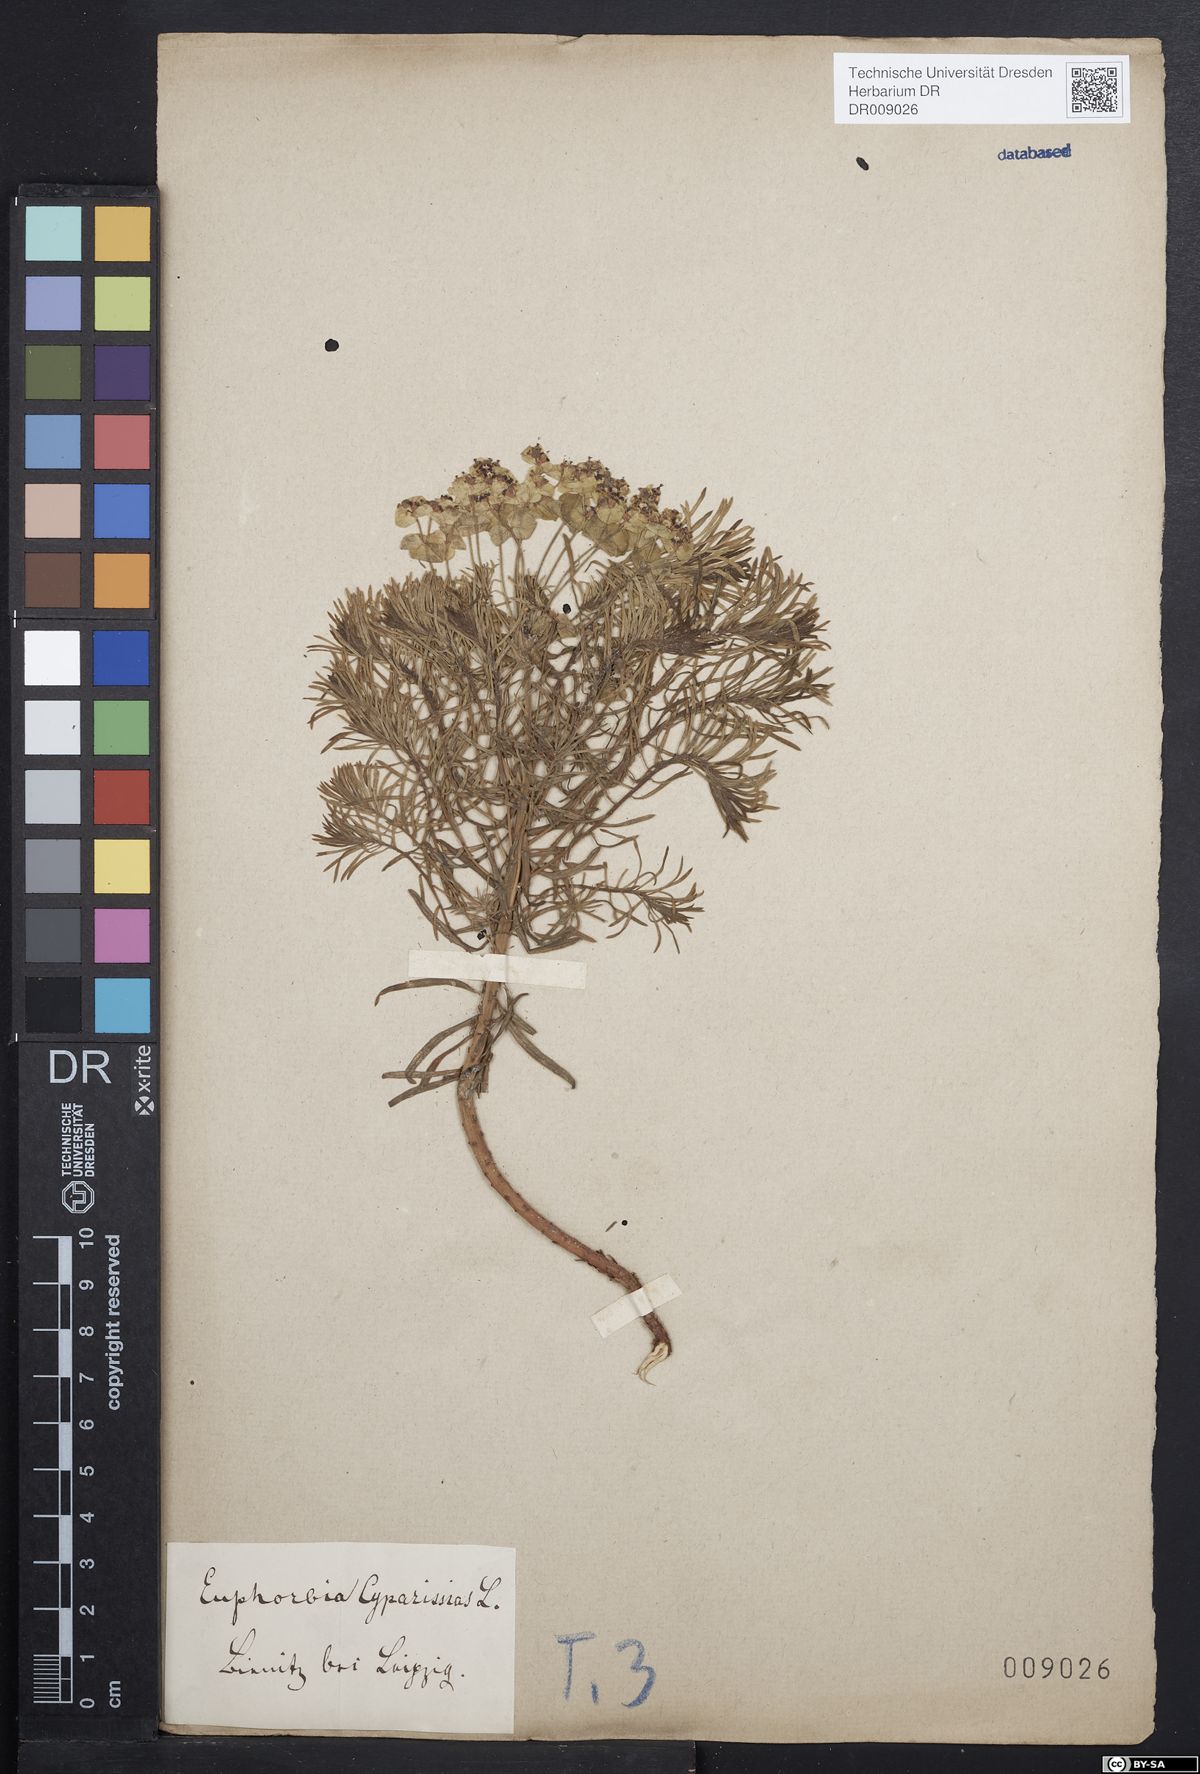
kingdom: Plantae
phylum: Tracheophyta
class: Magnoliopsida
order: Malpighiales
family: Euphorbiaceae
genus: Euphorbia
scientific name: Euphorbia cyparissias
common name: Cypress spurge
